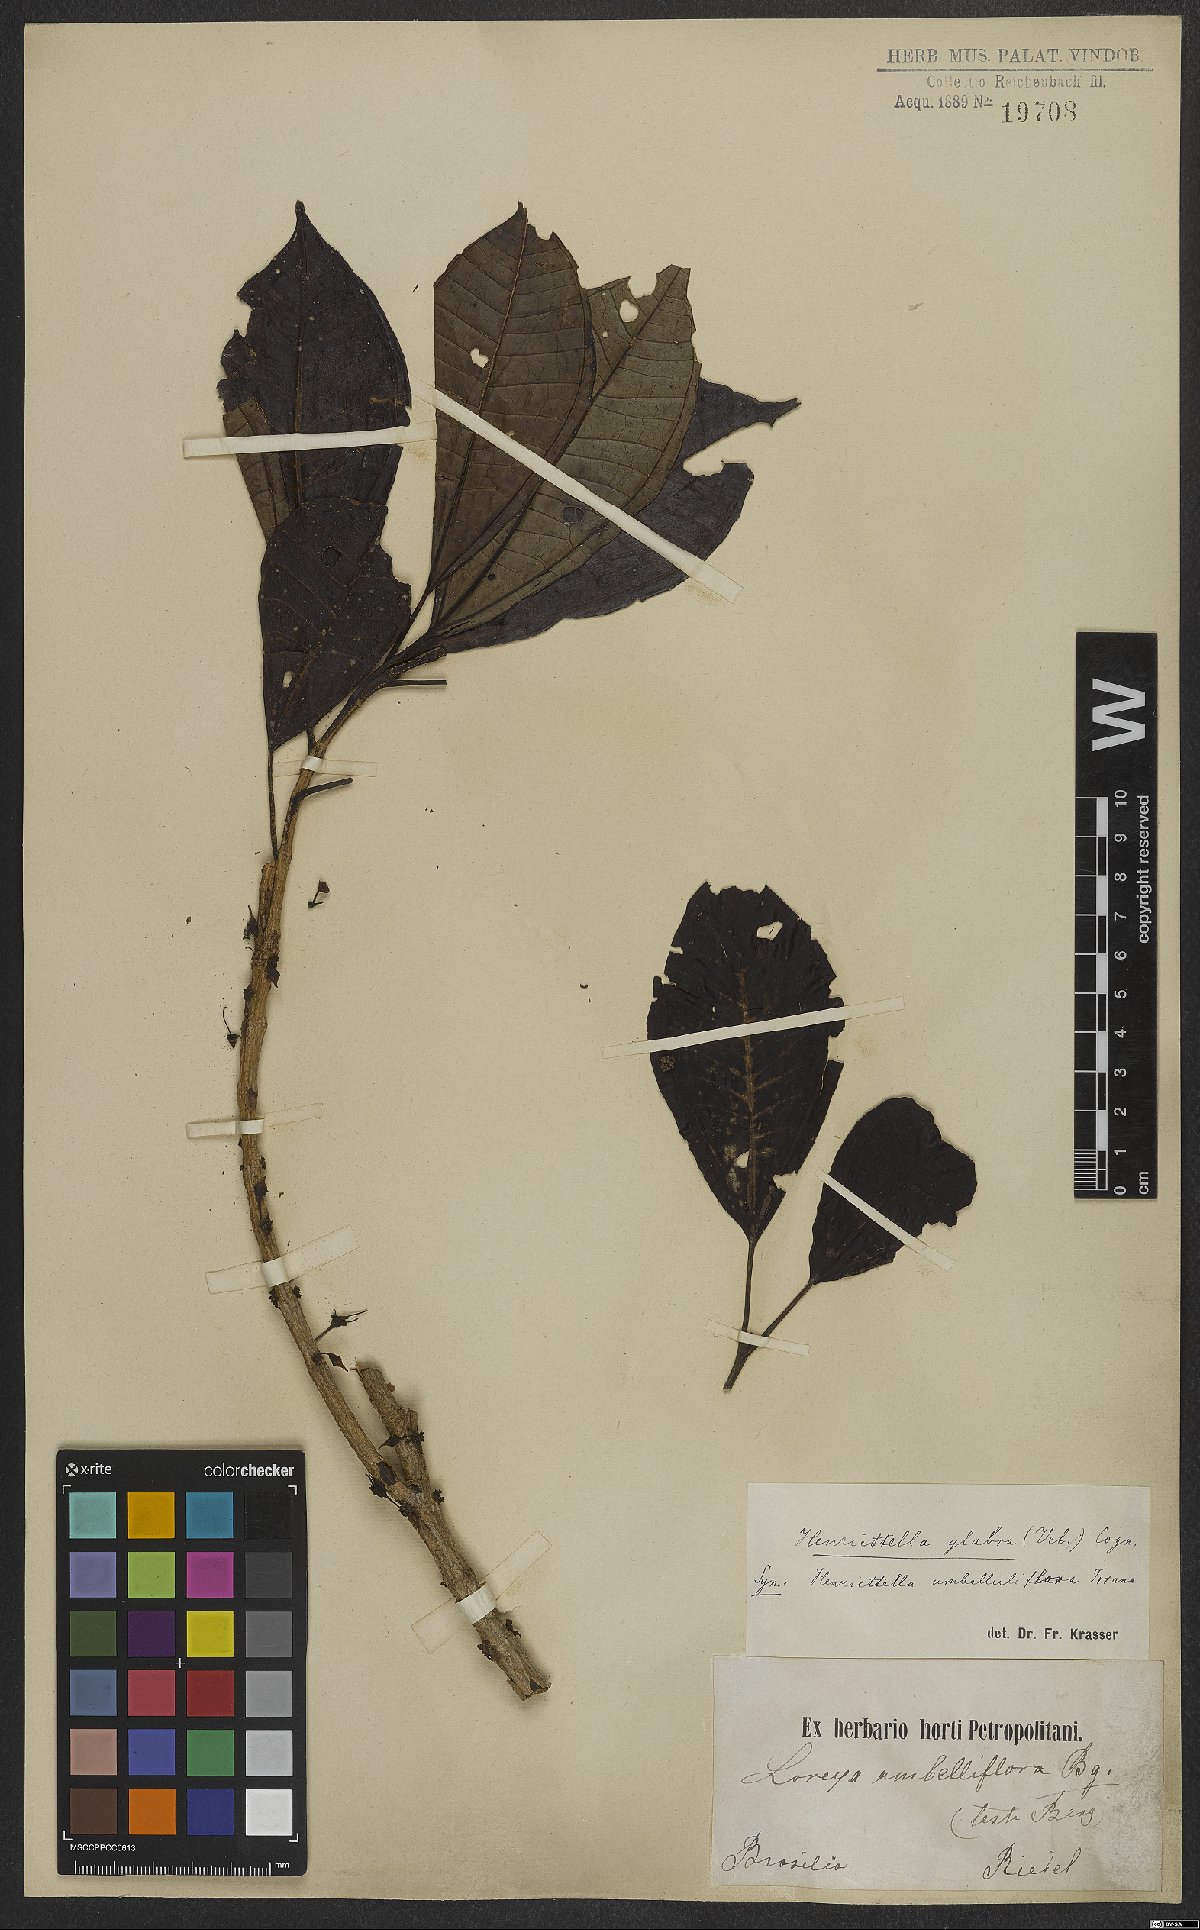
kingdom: Plantae
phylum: Tracheophyta
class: Magnoliopsida
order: Myrtales
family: Melastomataceae
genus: Henriettea
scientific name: Henriettea glabra
